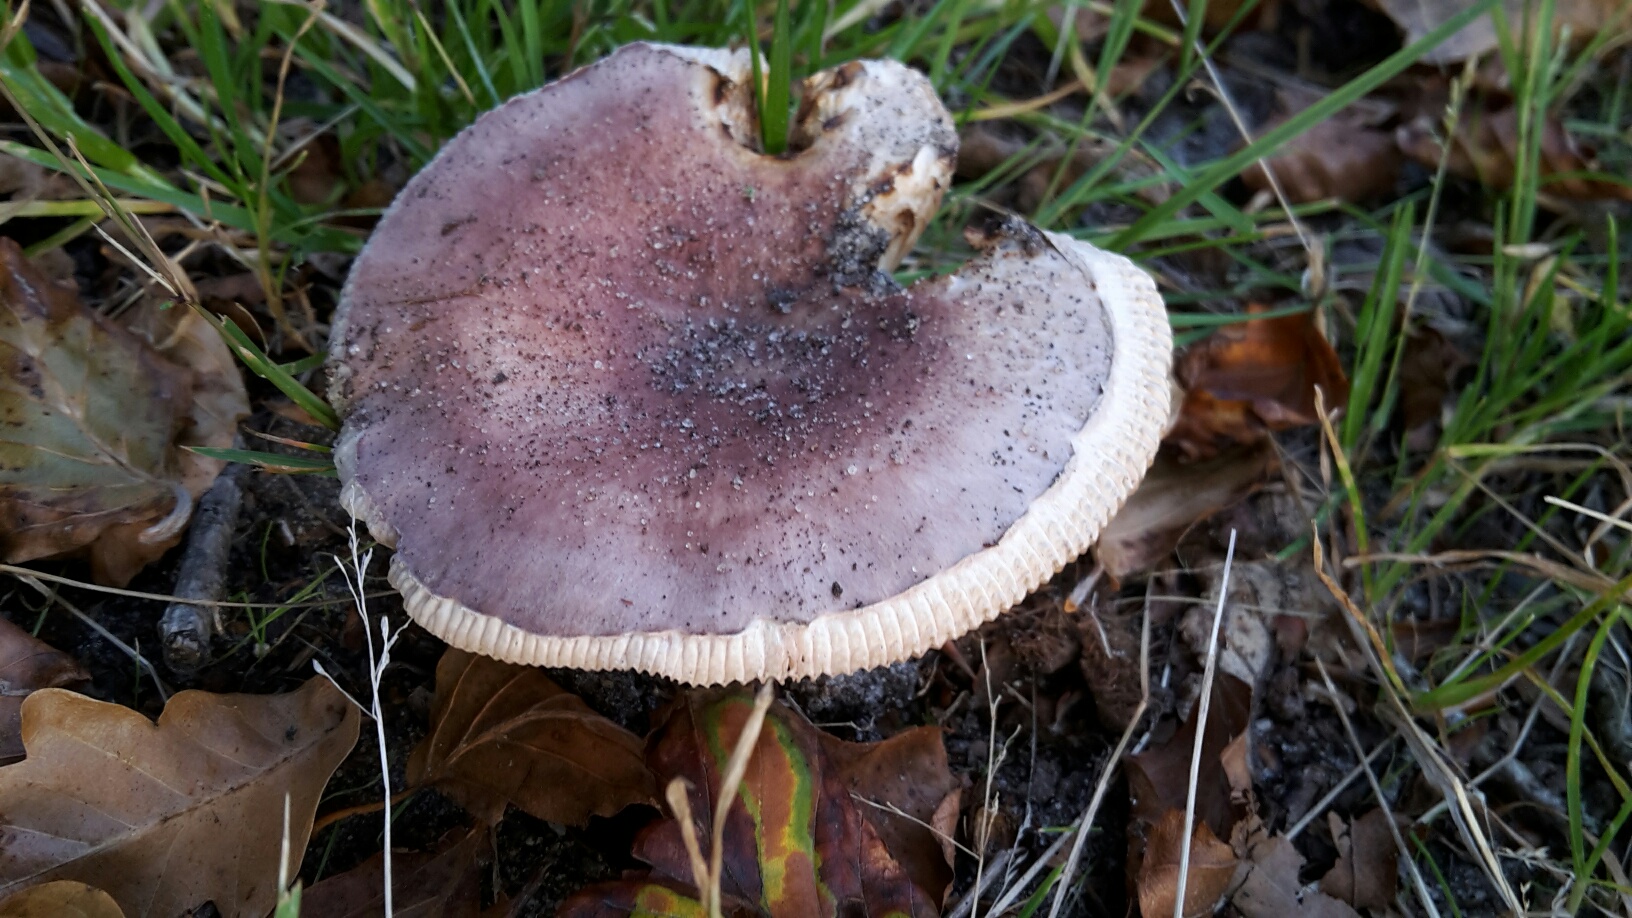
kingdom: Fungi
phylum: Basidiomycota
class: Agaricomycetes
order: Russulales
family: Russulaceae
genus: Russula
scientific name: Russula vesca
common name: spiselig skørhat
